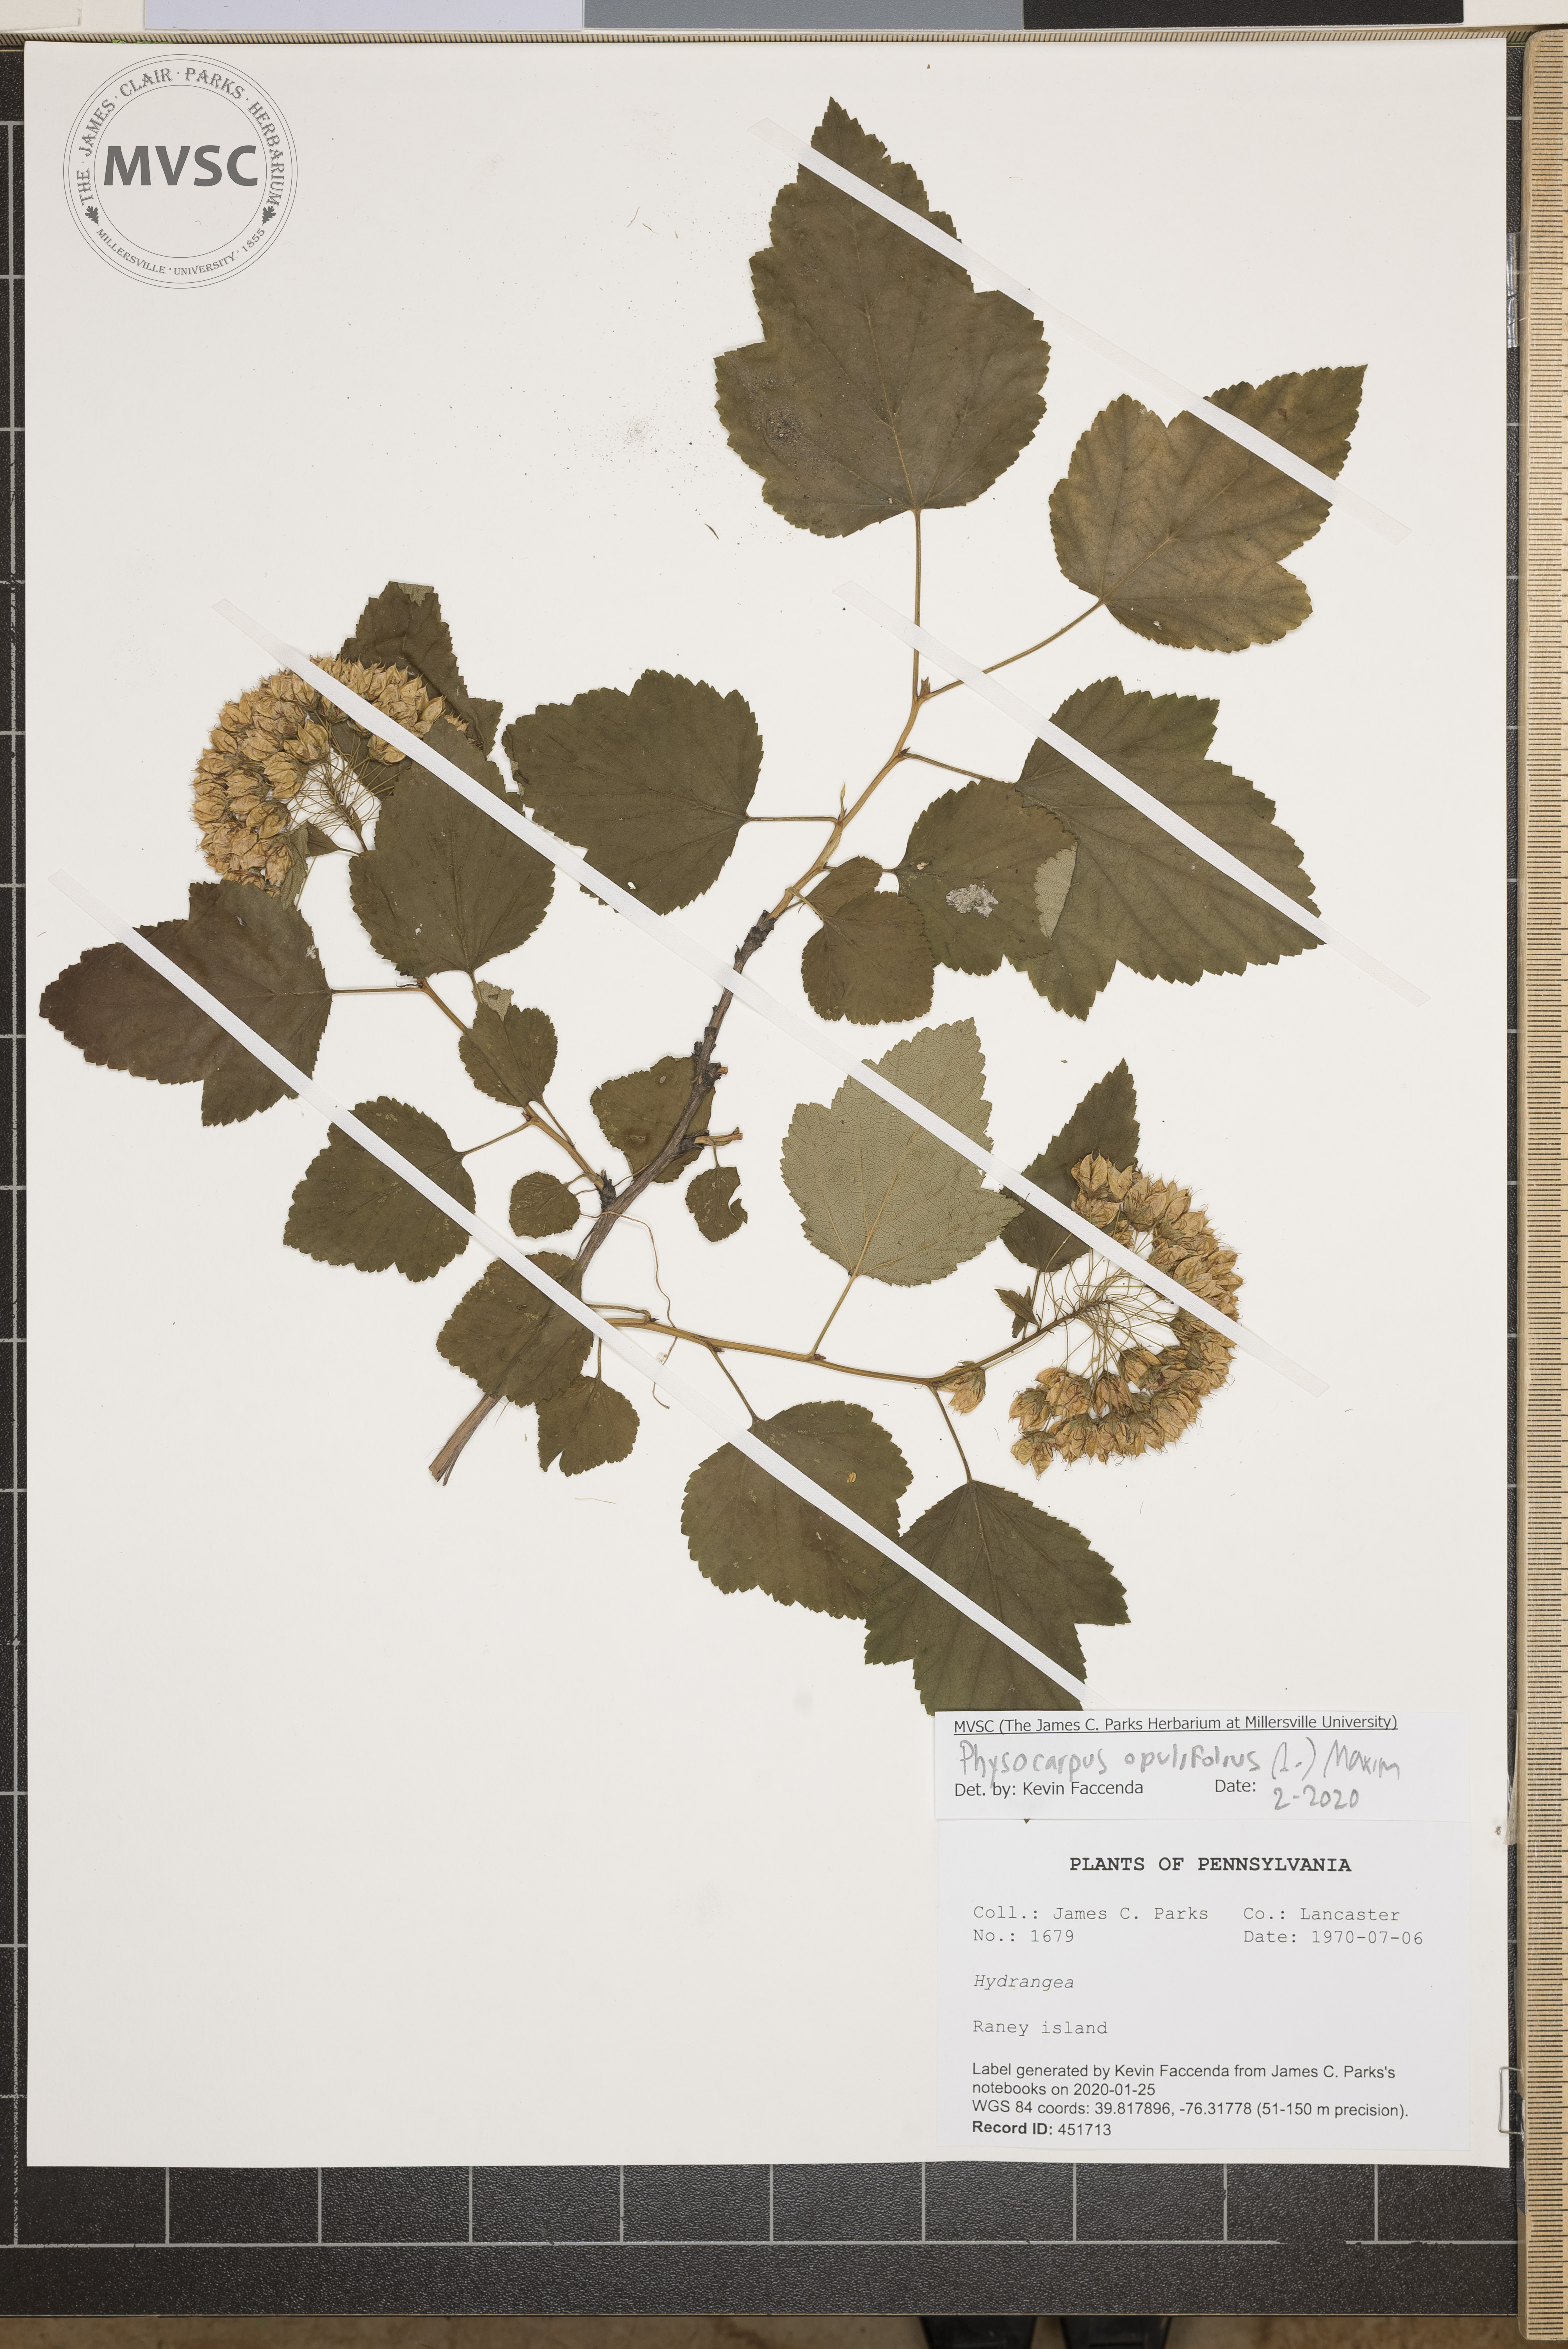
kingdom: Plantae
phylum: Tracheophyta
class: Magnoliopsida
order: Rosales
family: Rosaceae
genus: Physocarpus
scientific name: Physocarpus opulifolius
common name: Ninebark
